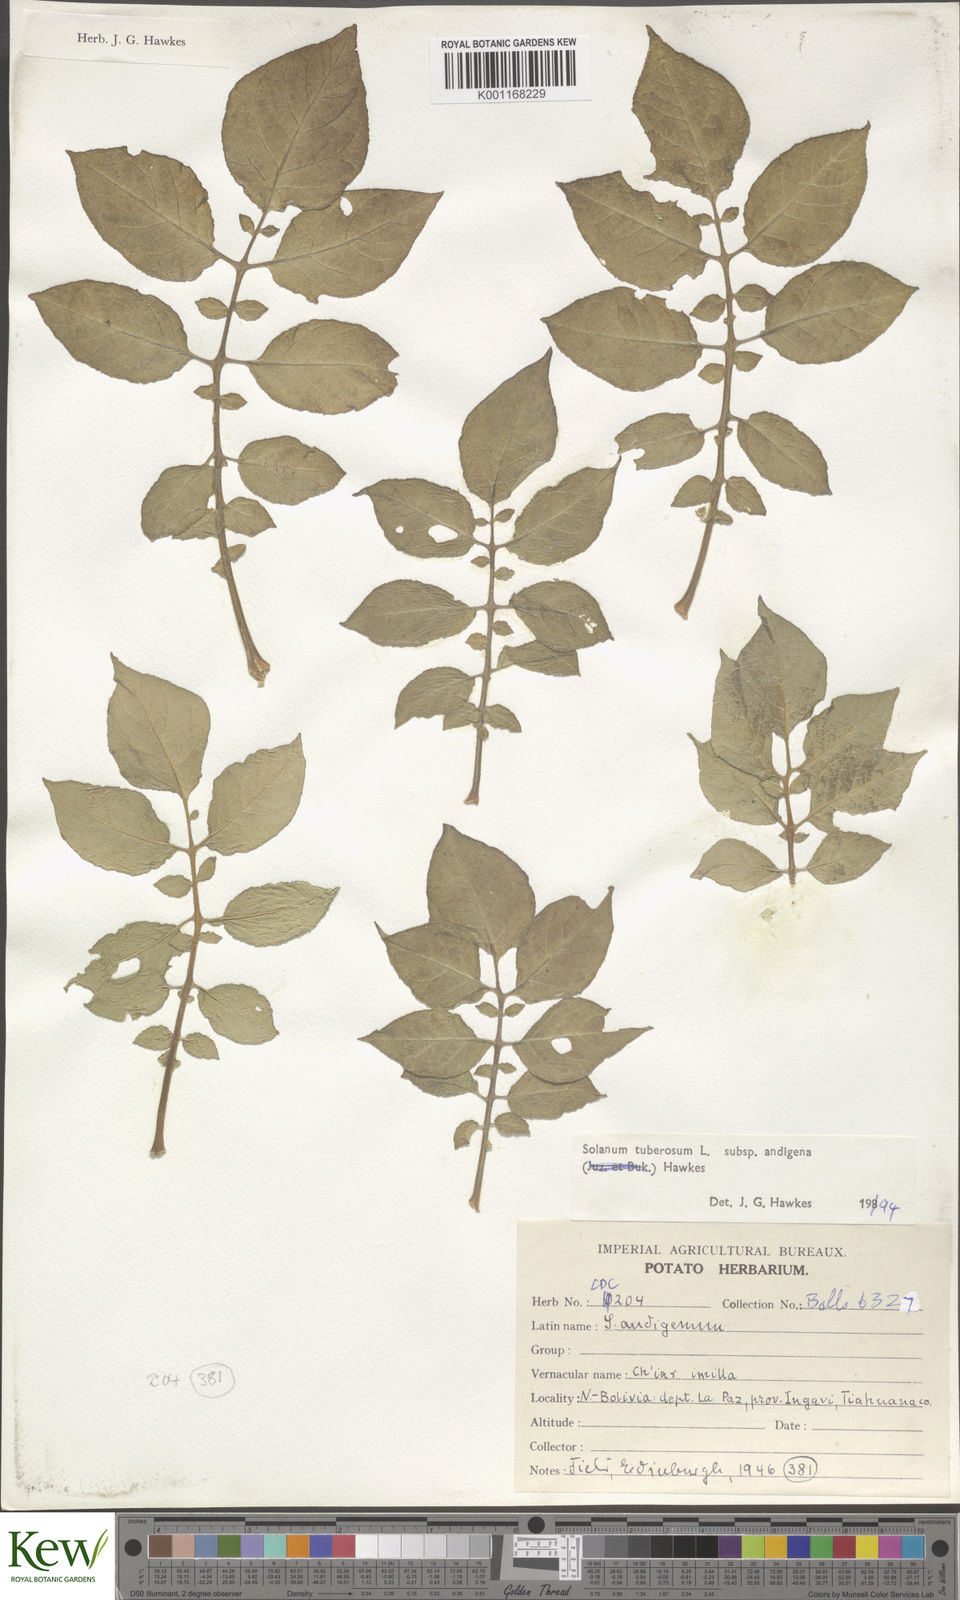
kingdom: Plantae
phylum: Tracheophyta
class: Magnoliopsida
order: Solanales
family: Solanaceae
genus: Solanum
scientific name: Solanum tuberosum
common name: Potato
